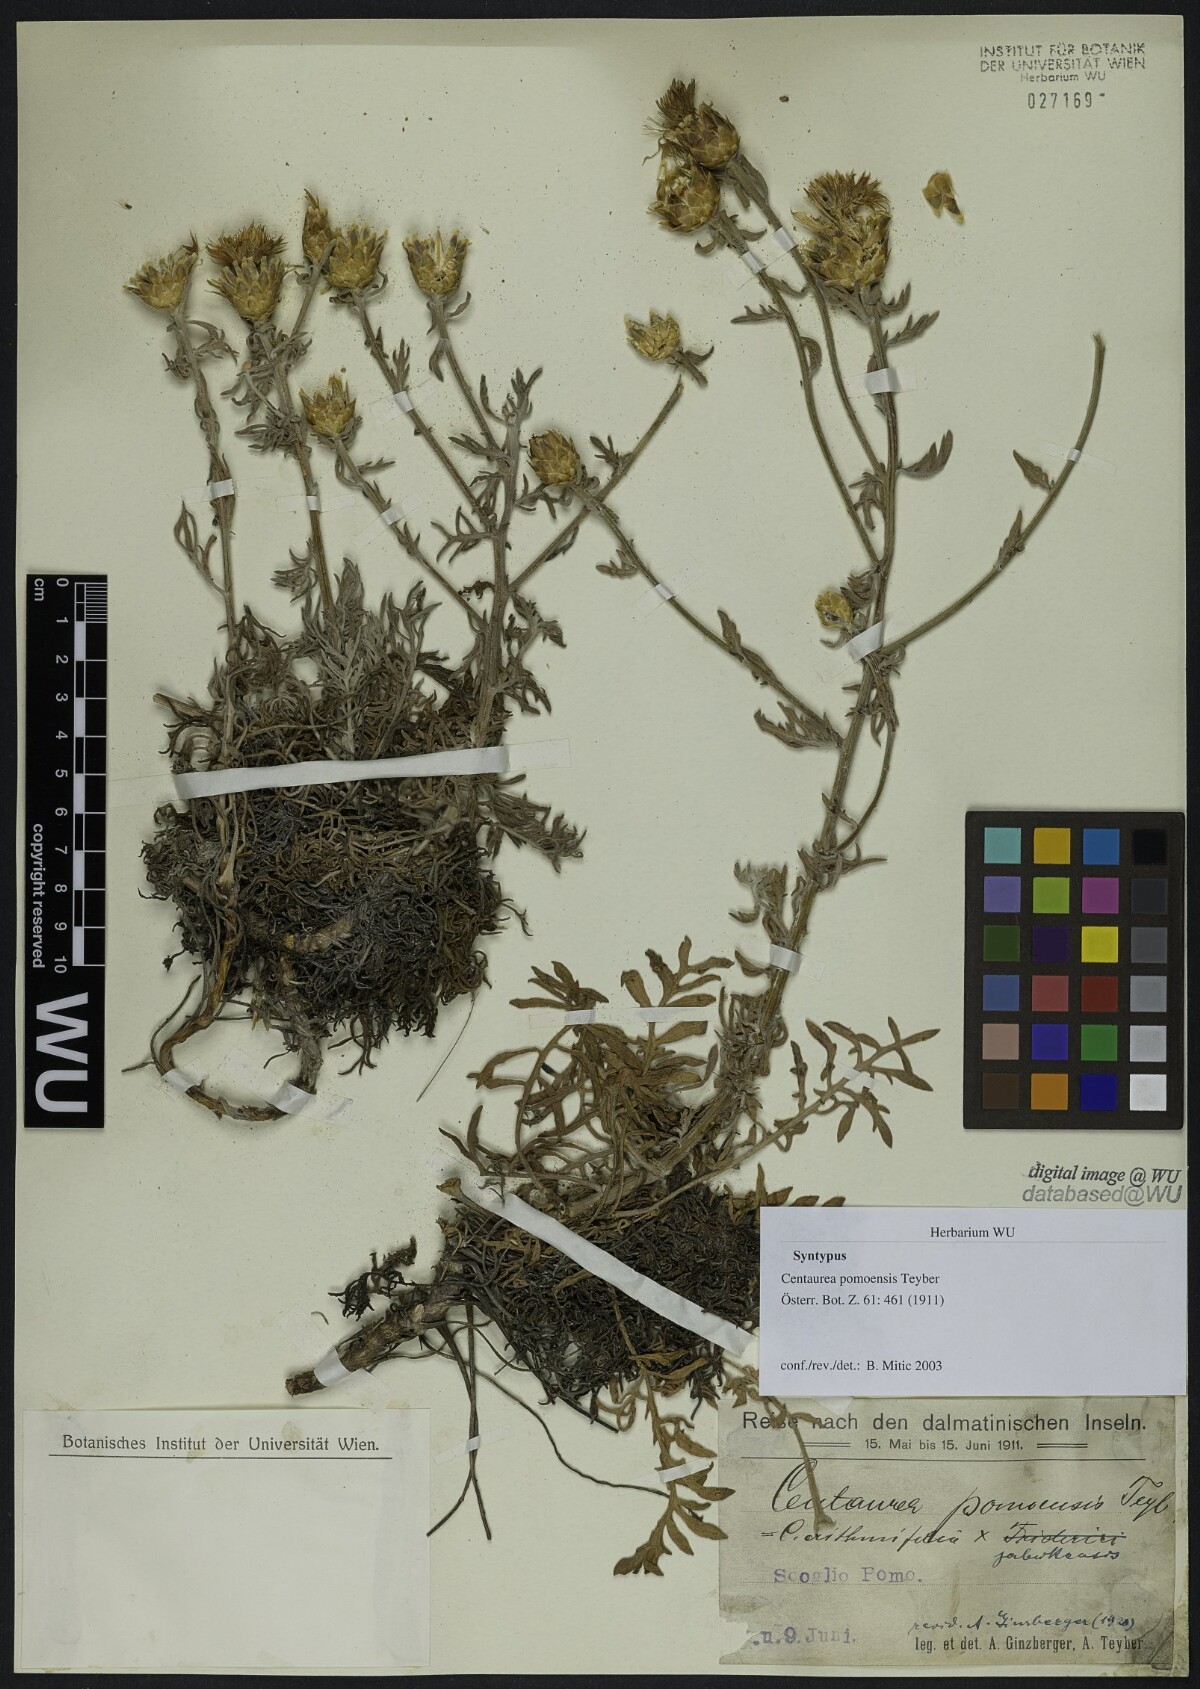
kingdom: Plantae
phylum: Tracheophyta
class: Magnoliopsida
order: Asterales
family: Asteraceae
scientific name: Asteraceae
